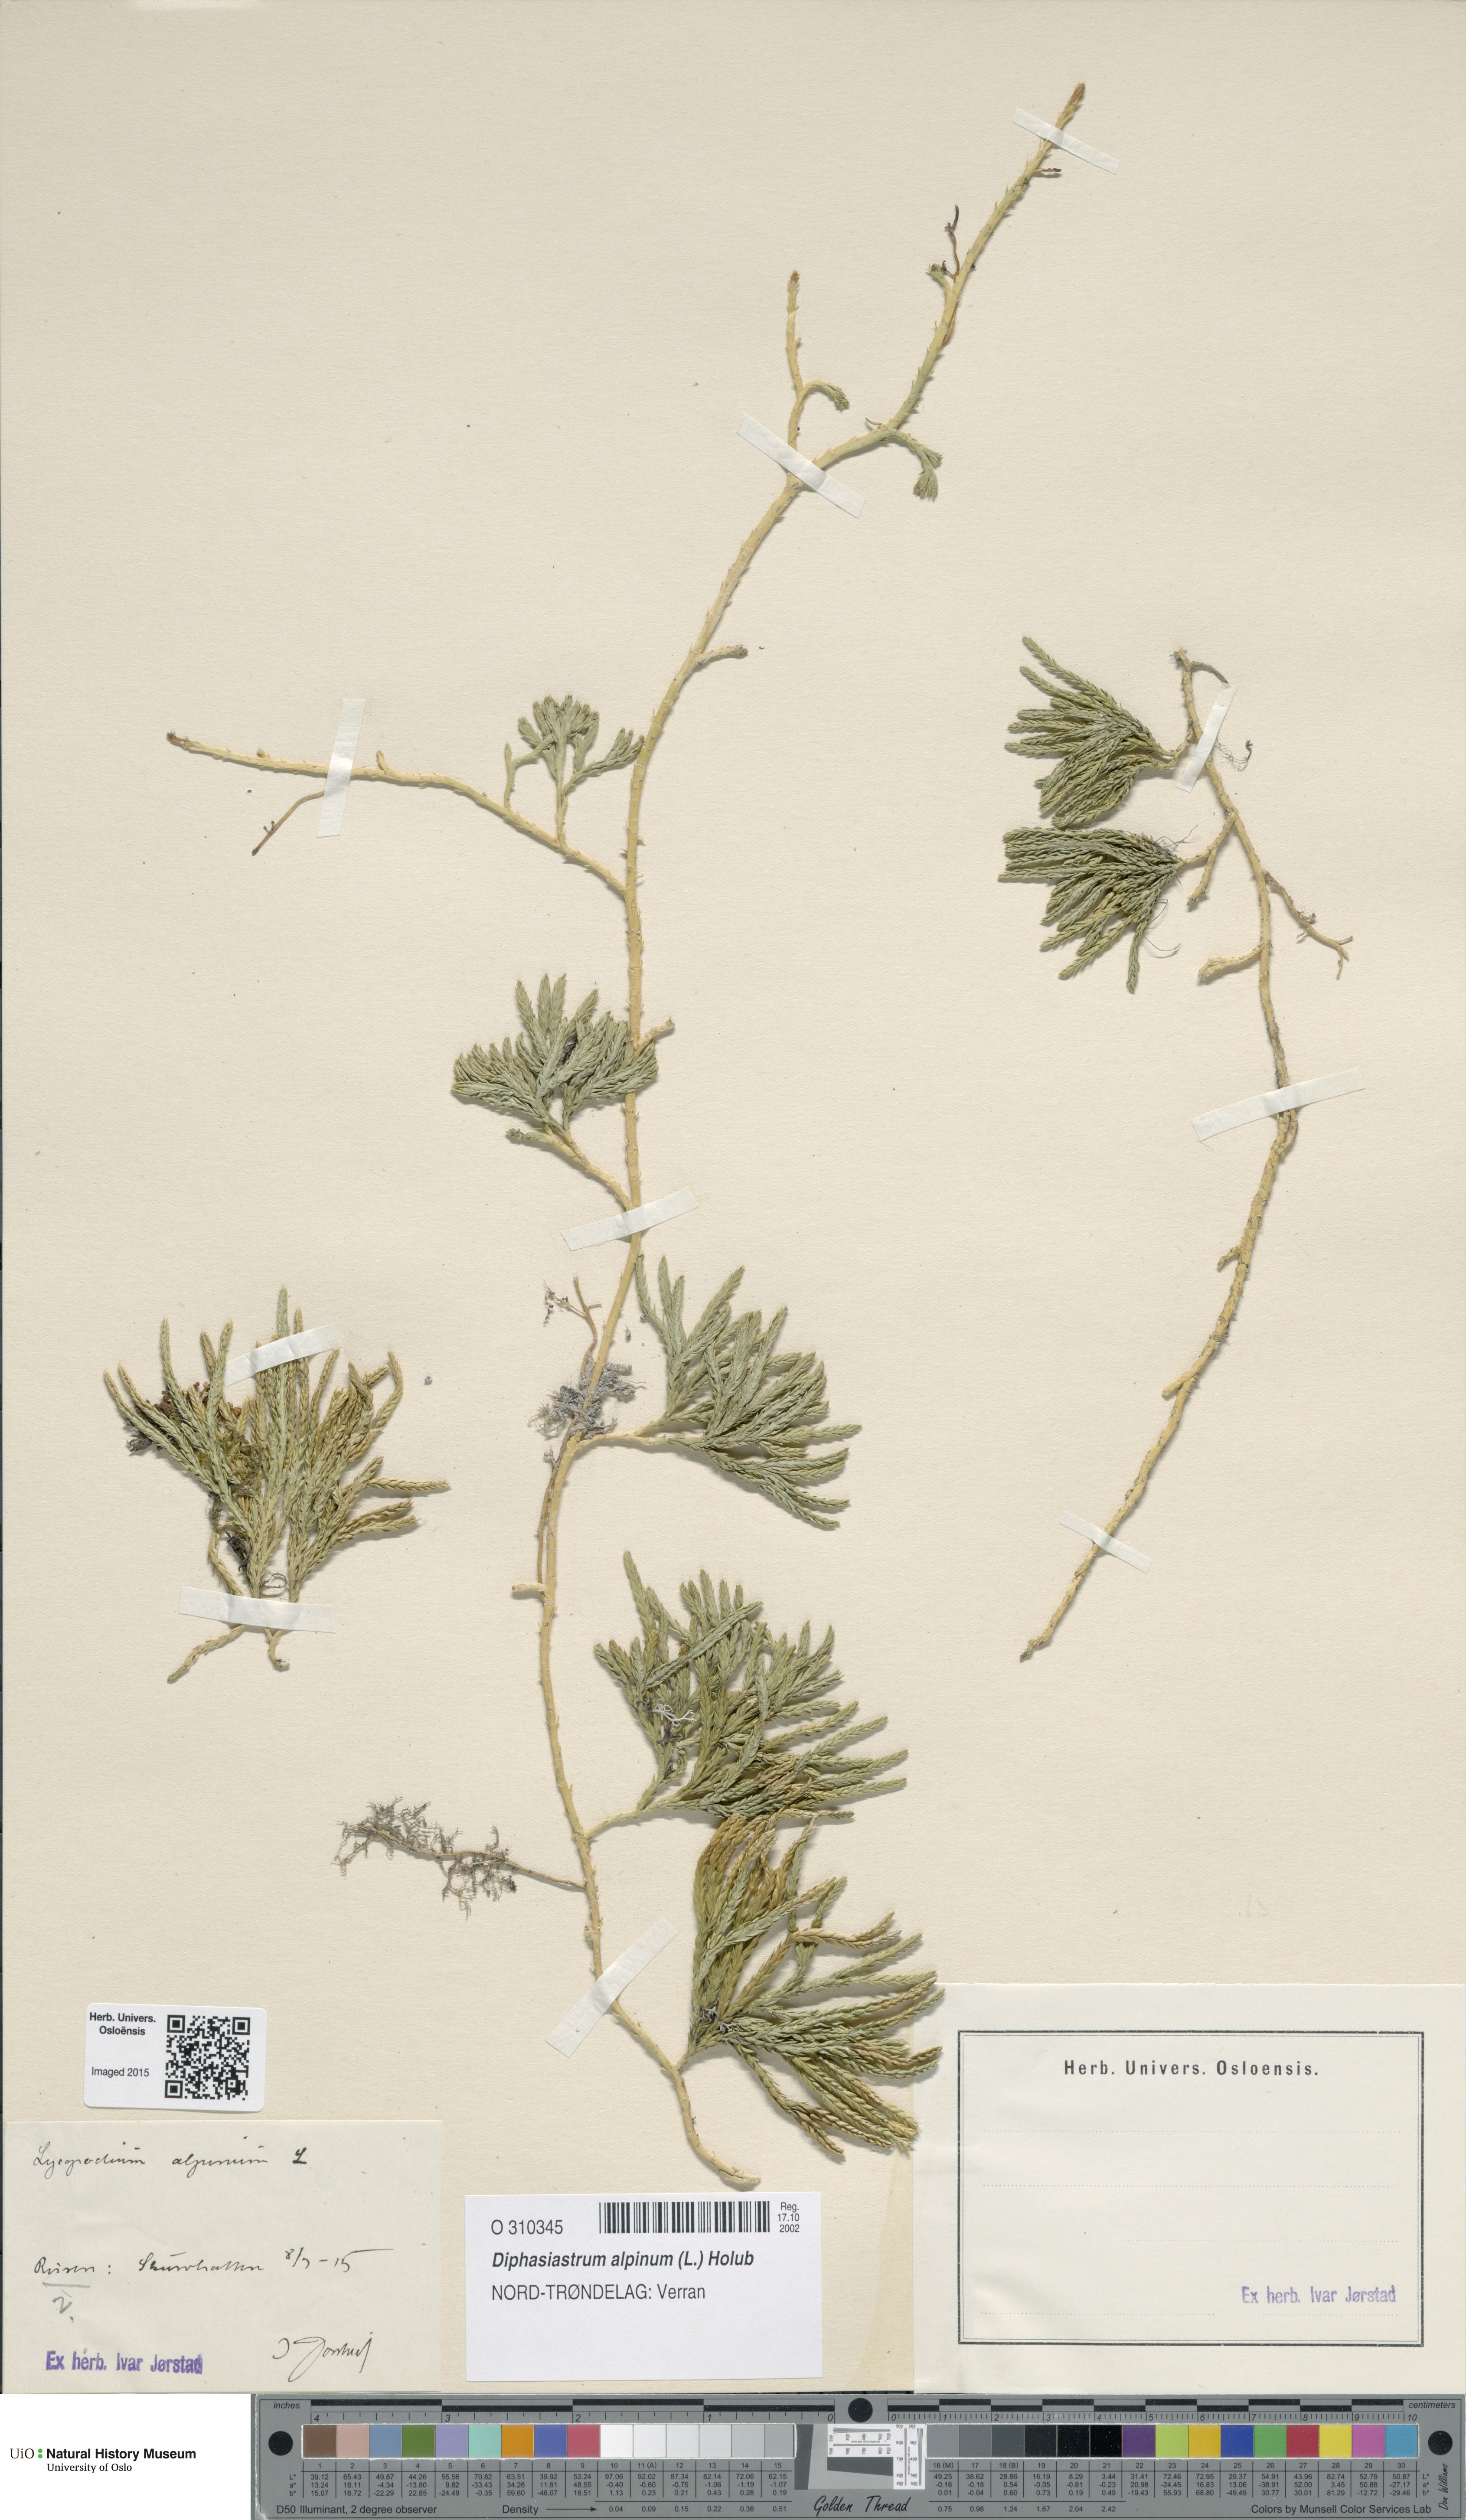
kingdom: Plantae
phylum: Tracheophyta
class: Lycopodiopsida
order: Lycopodiales
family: Lycopodiaceae
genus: Diphasiastrum
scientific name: Diphasiastrum alpinum
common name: Alpine clubmoss
